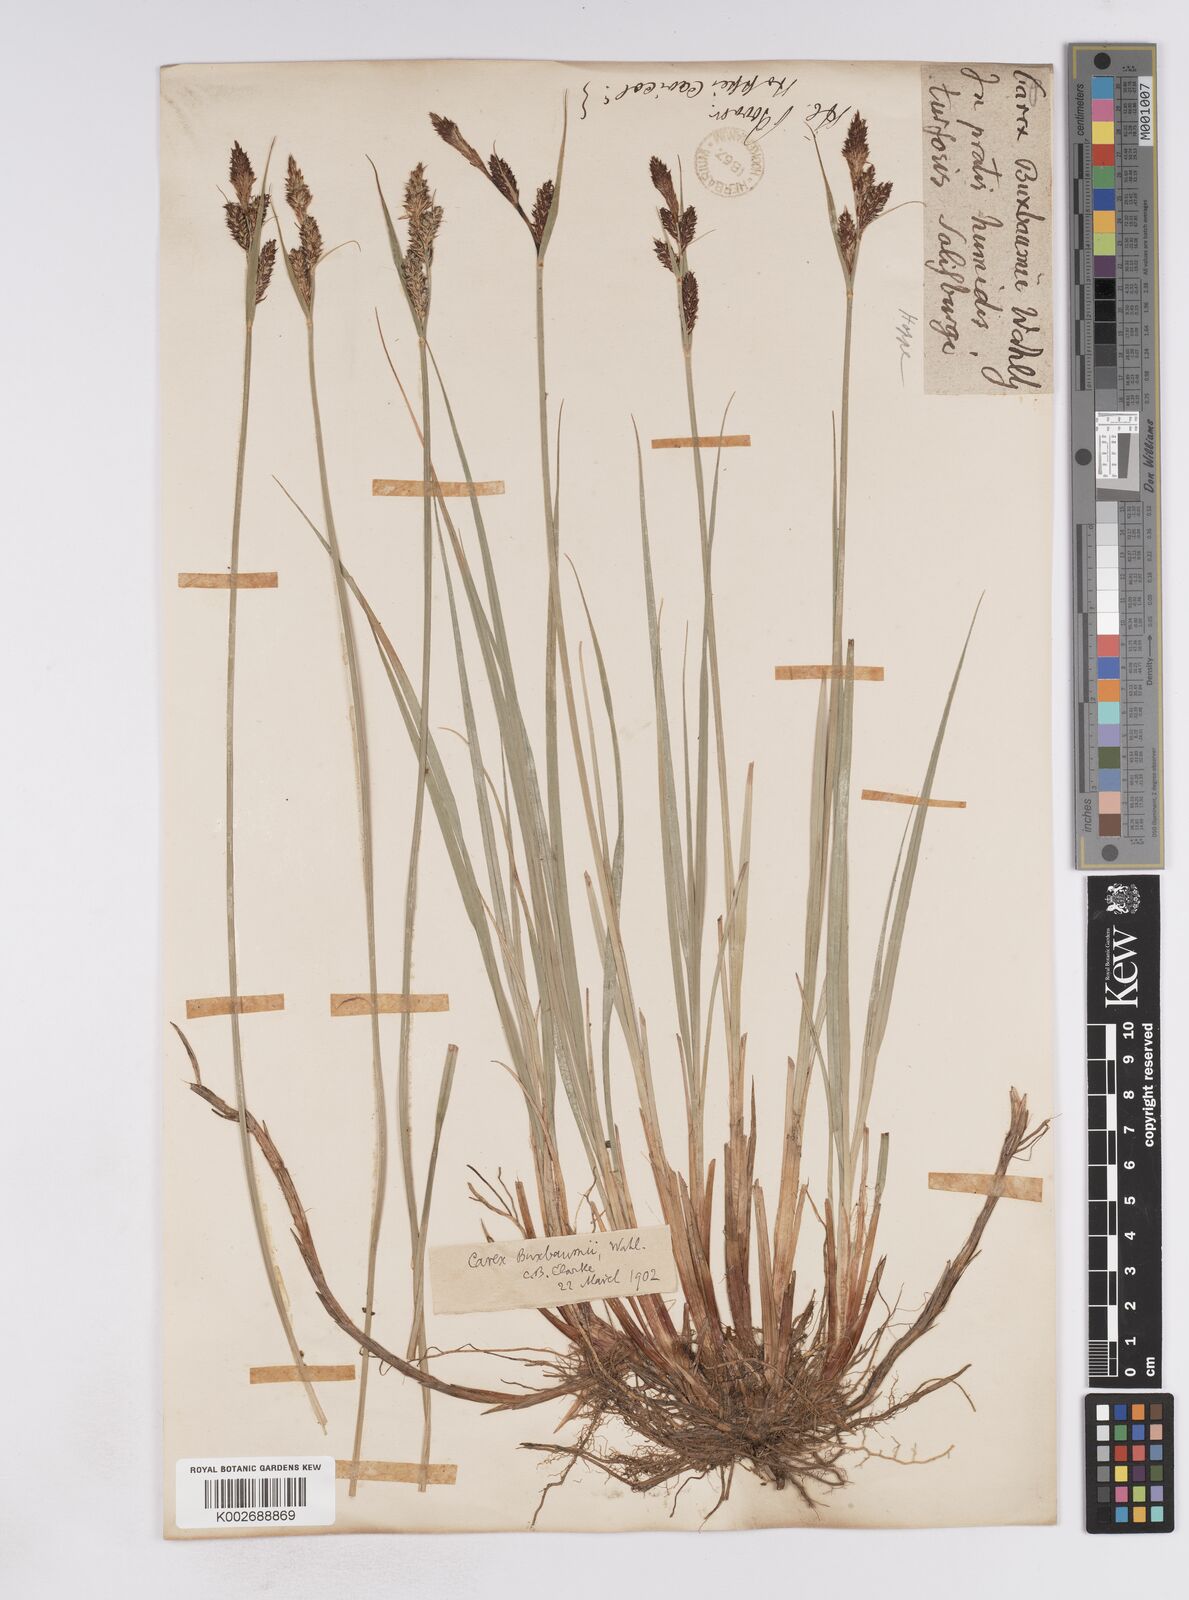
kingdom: Plantae
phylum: Tracheophyta
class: Liliopsida
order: Poales
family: Cyperaceae
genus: Carex
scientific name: Carex buxbaumii
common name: Club sedge
